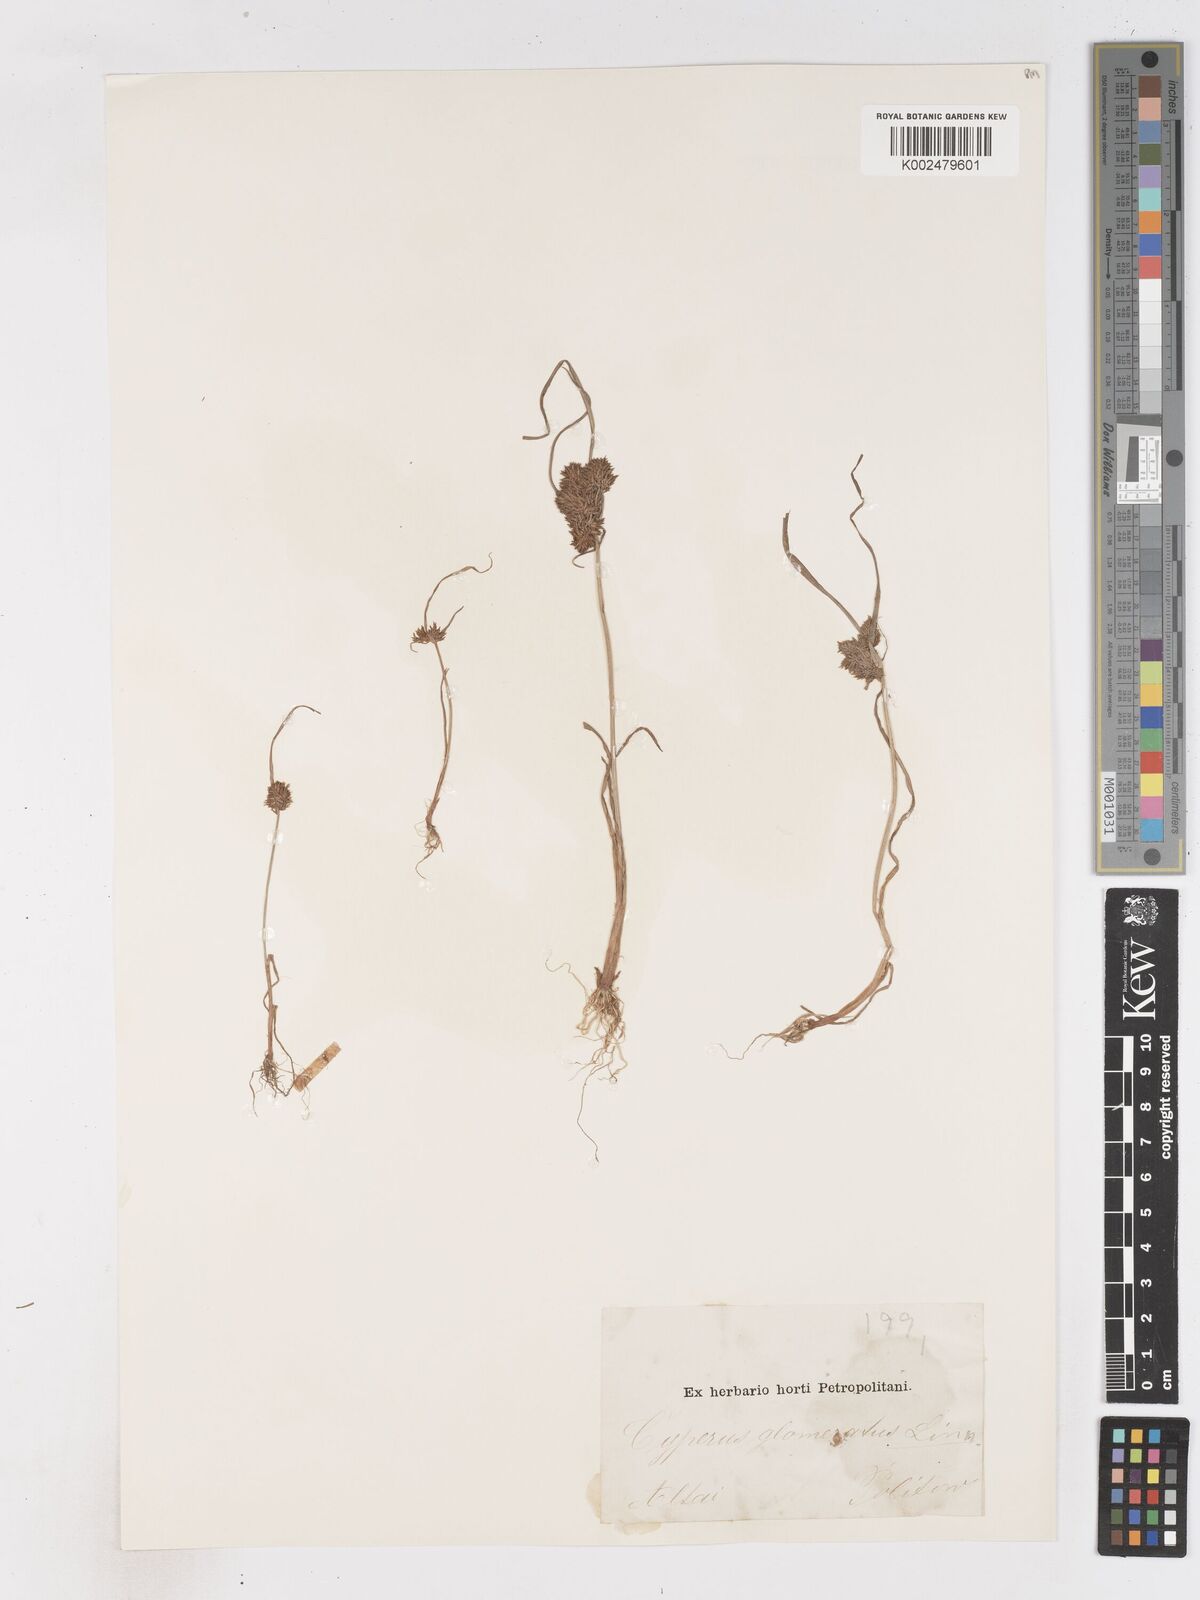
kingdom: Plantae
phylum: Tracheophyta
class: Liliopsida
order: Poales
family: Cyperaceae
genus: Cyperus
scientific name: Cyperus glomeratus
